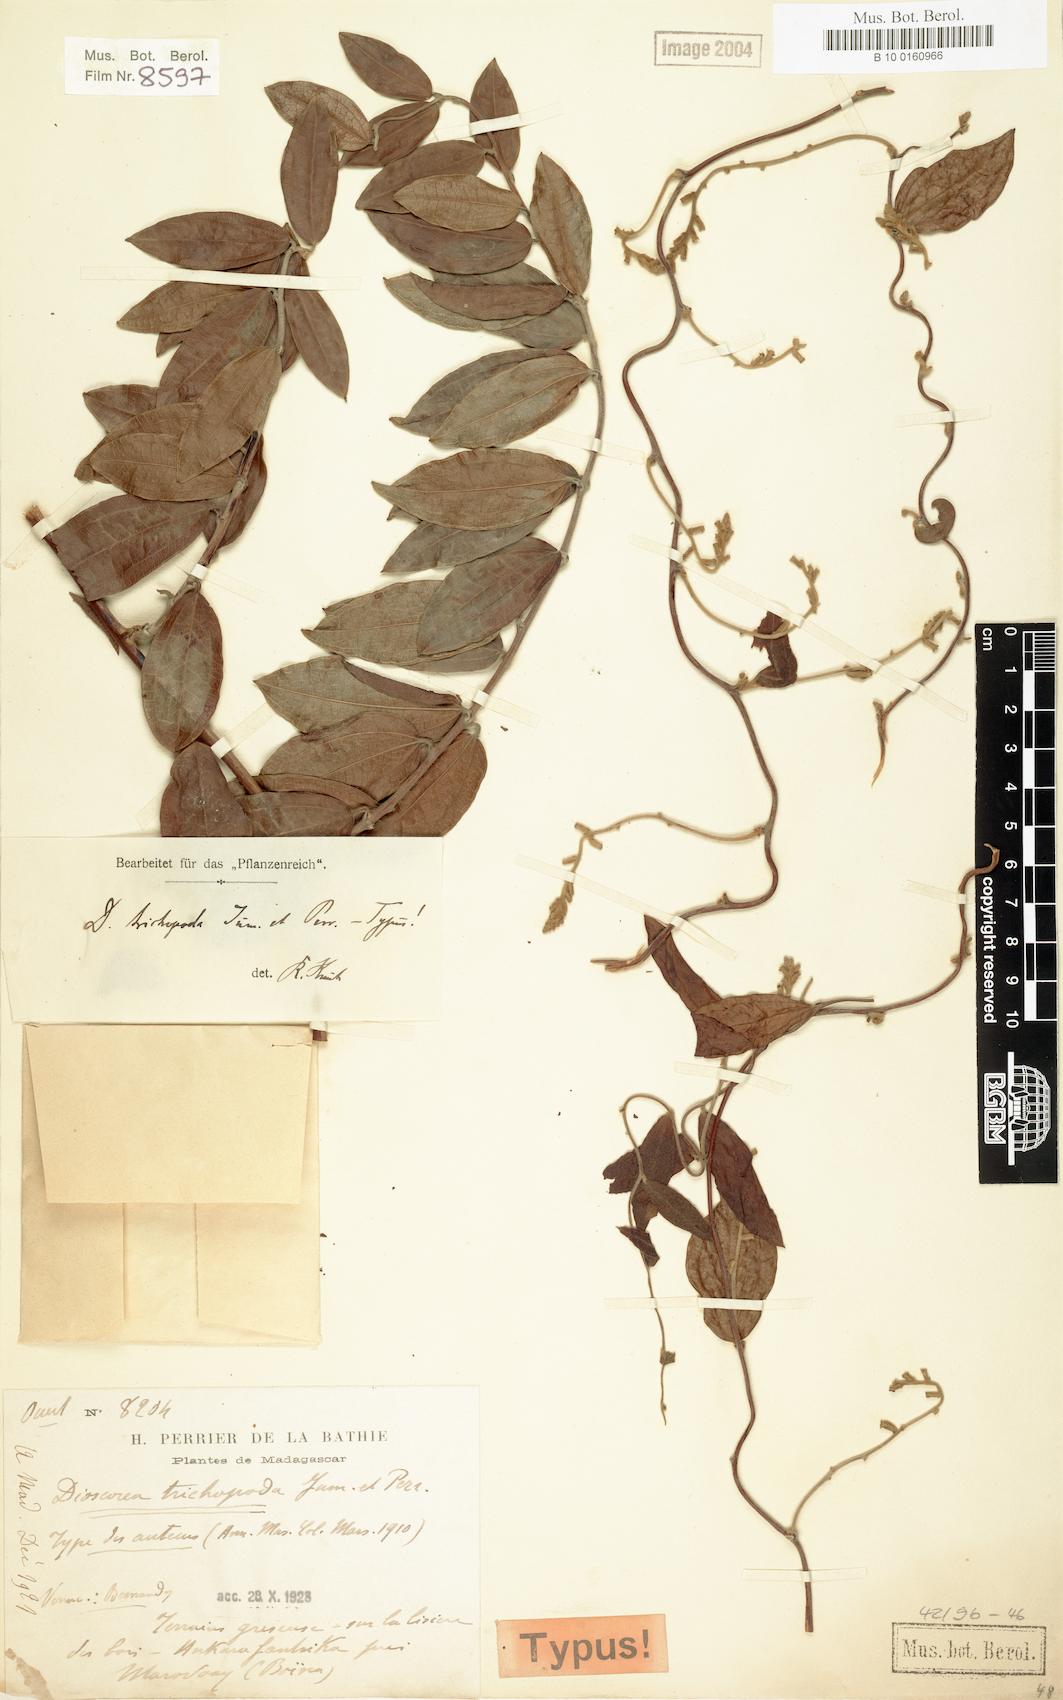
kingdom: Plantae
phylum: Tracheophyta
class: Liliopsida
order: Dioscoreales
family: Dioscoreaceae
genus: Dioscorea
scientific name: Dioscorea soso
